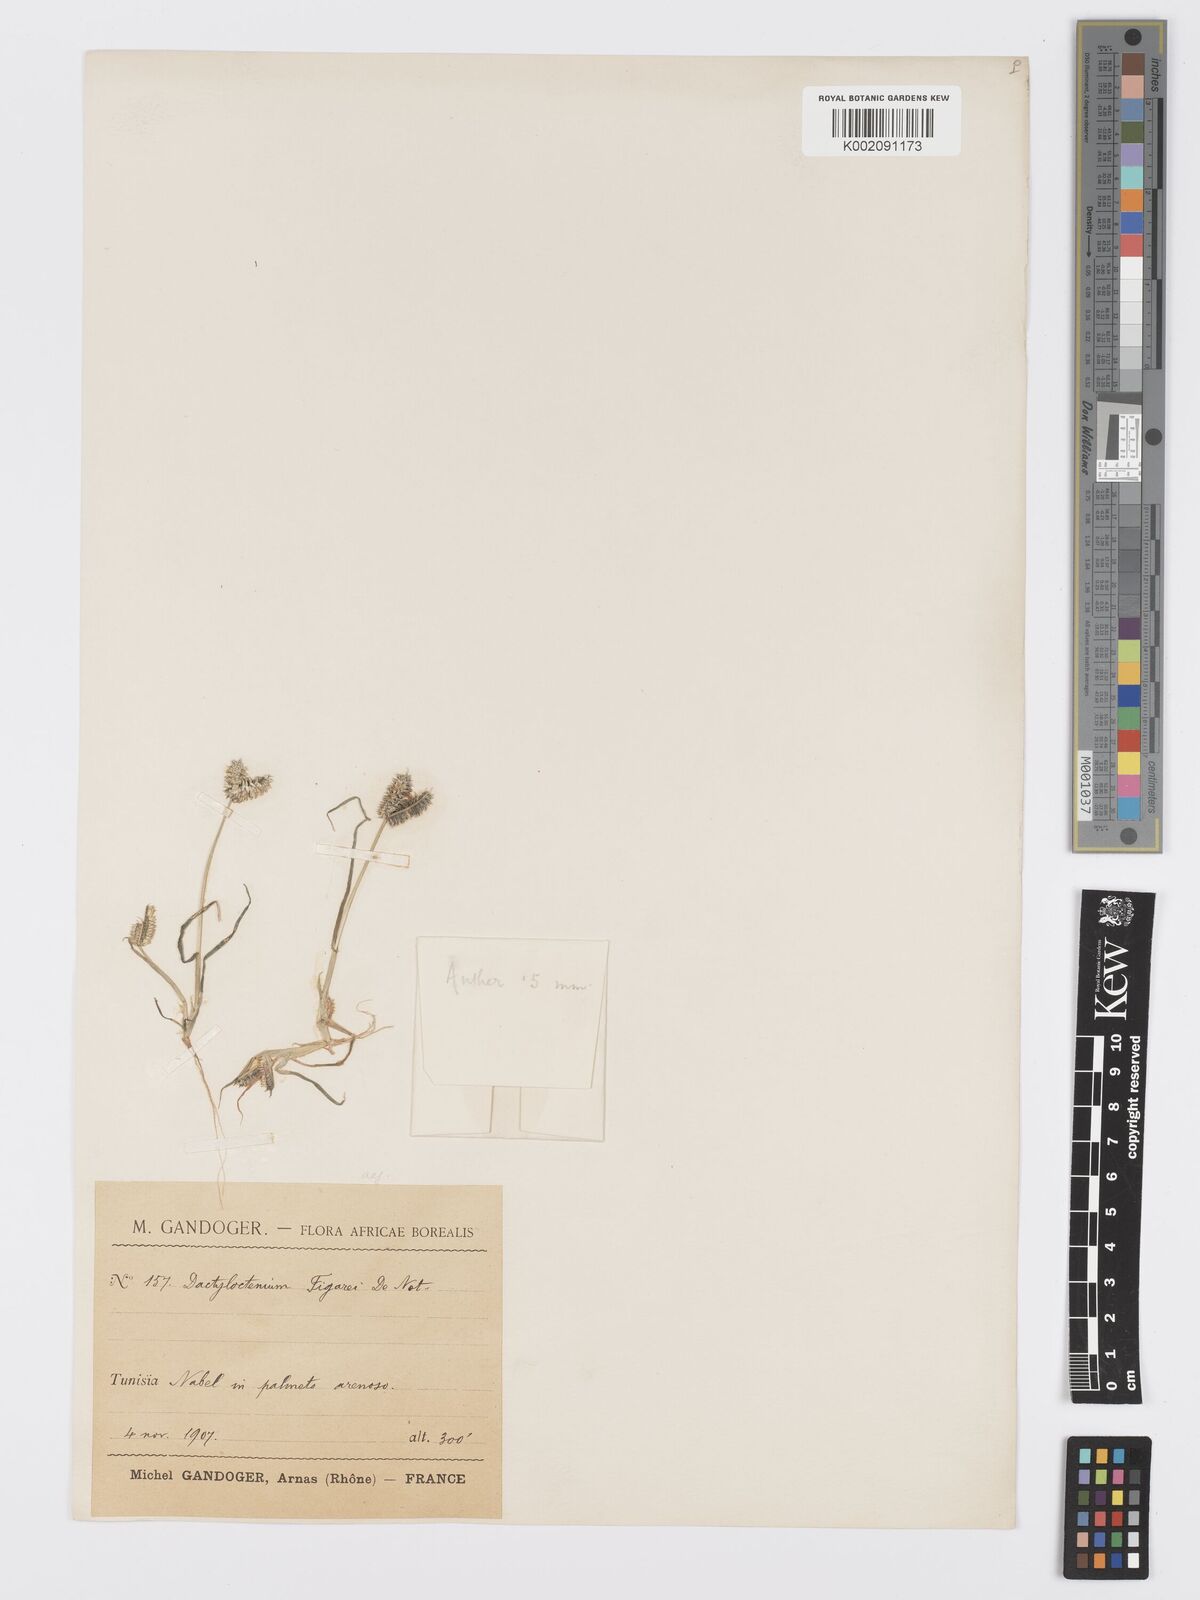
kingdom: Plantae
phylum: Tracheophyta
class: Liliopsida
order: Poales
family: Poaceae
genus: Dactyloctenium
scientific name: Dactyloctenium aegyptium
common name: Egyptian grass
